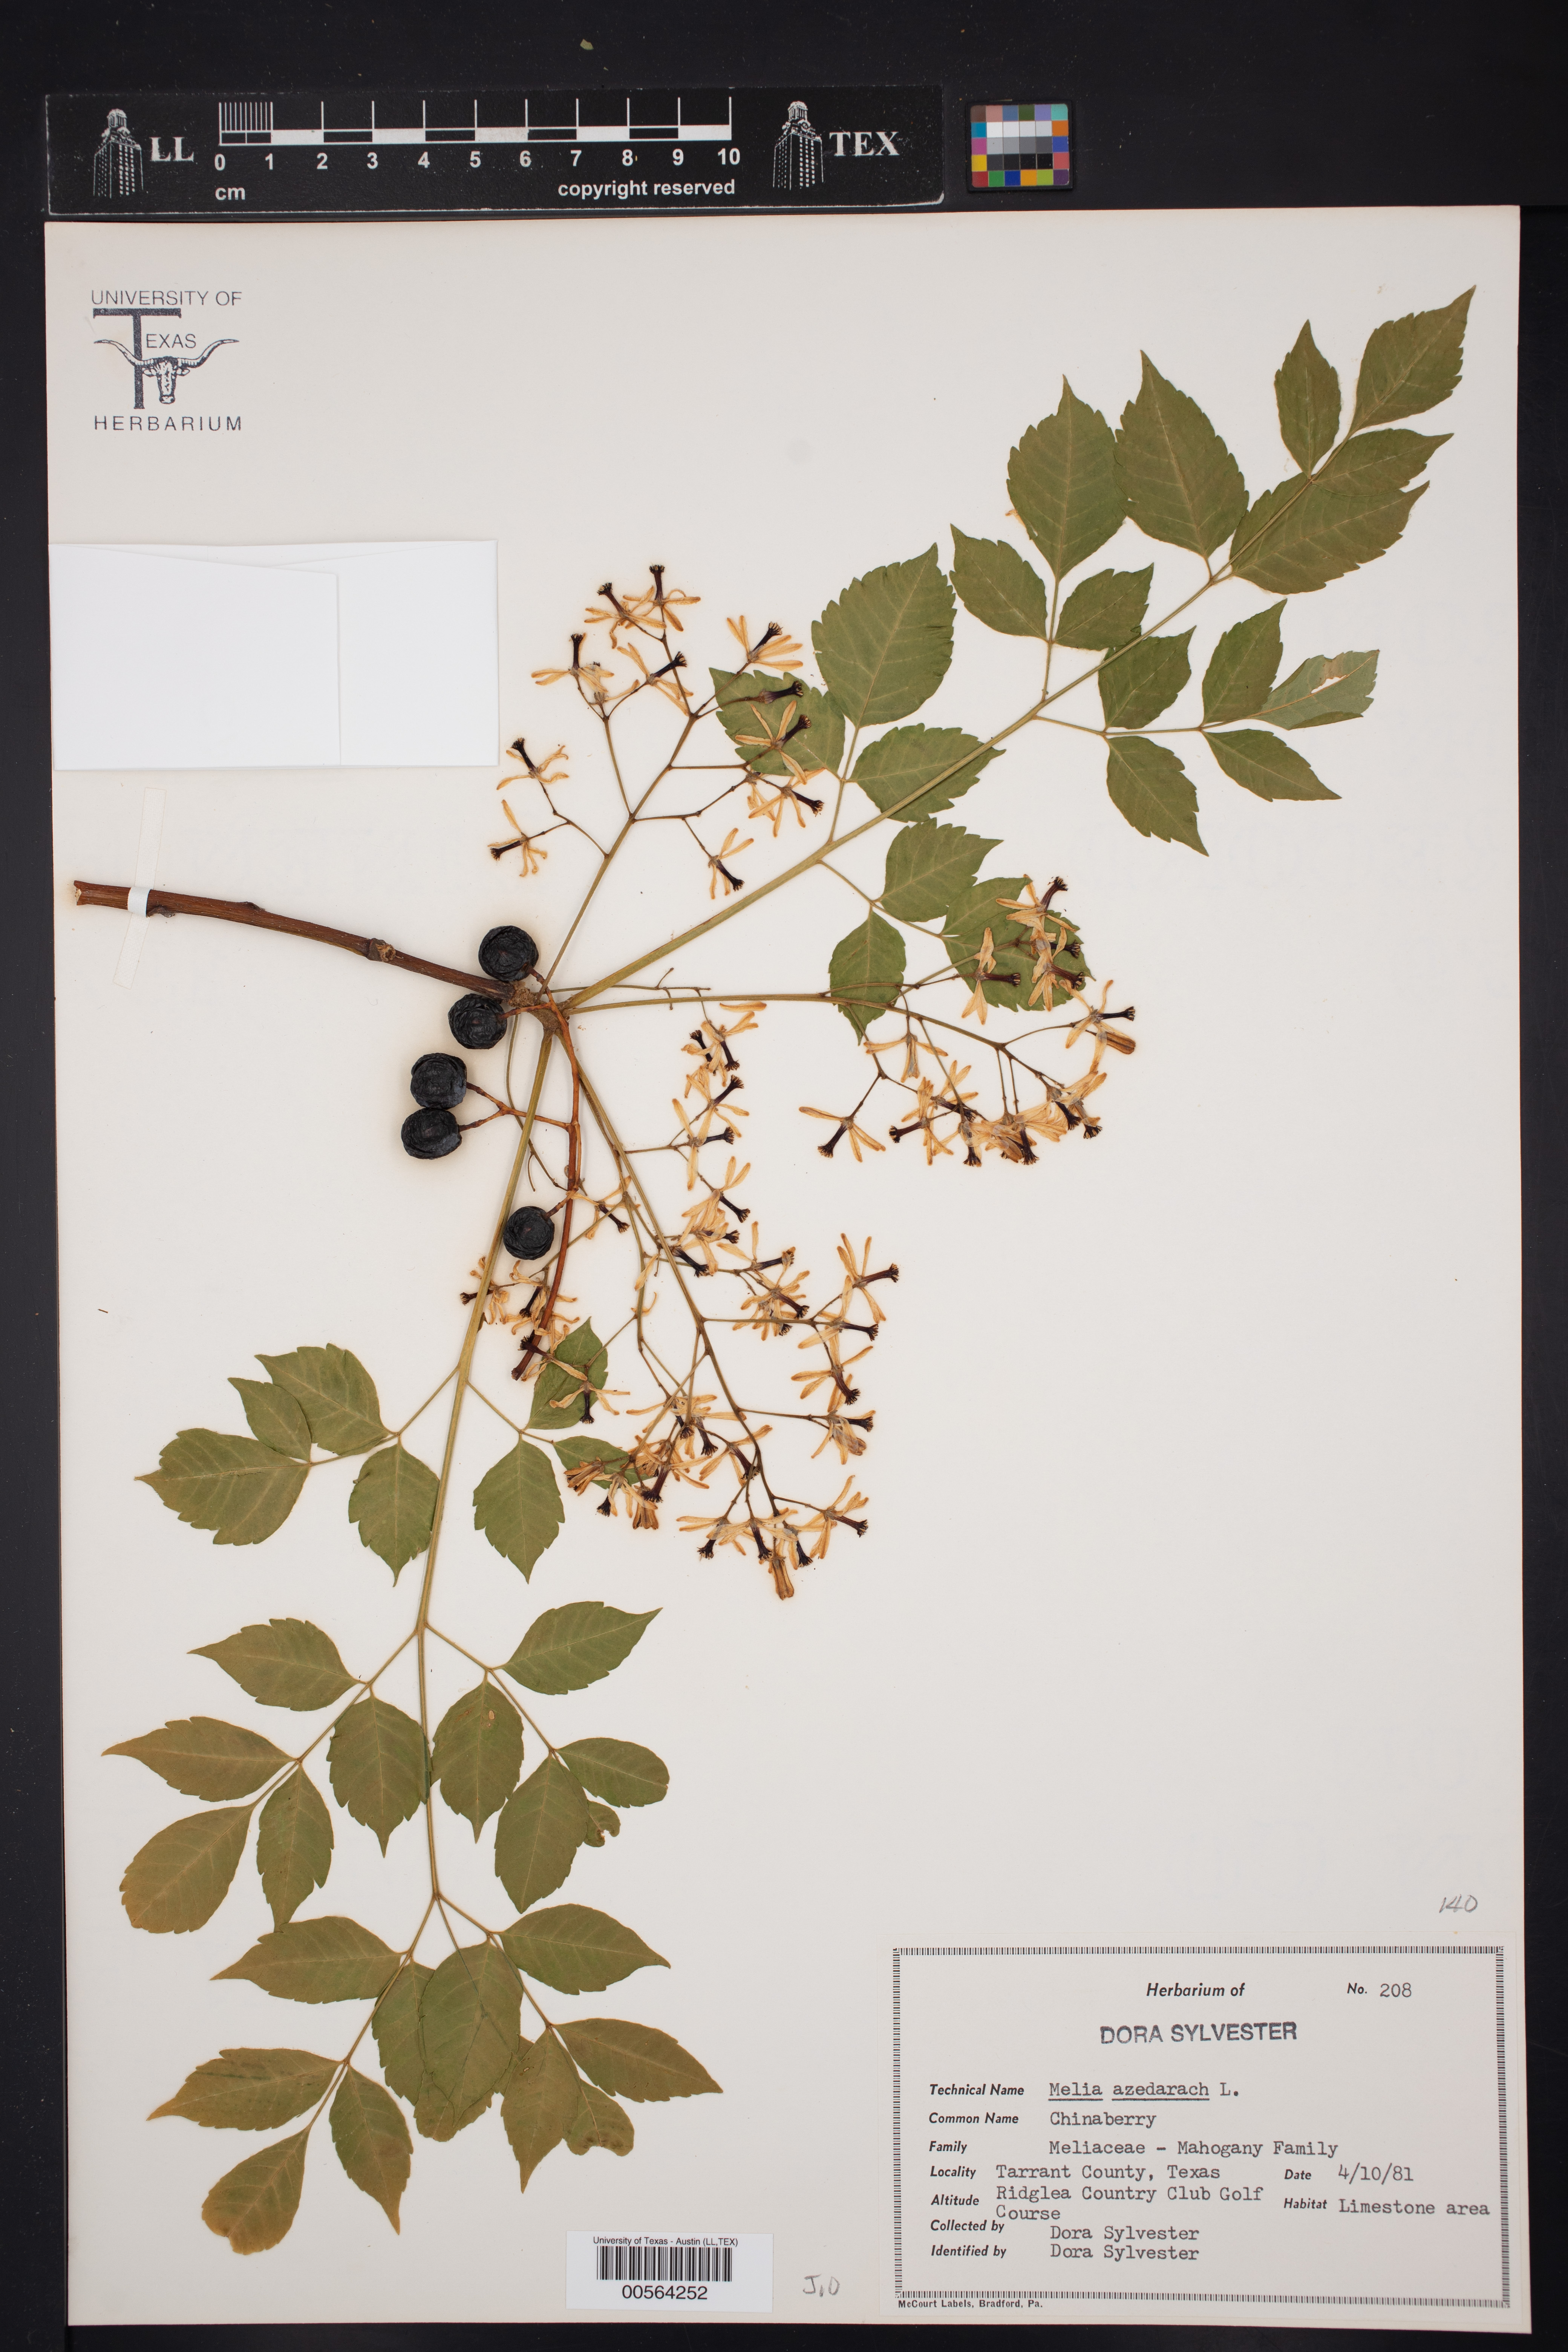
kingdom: Plantae
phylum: Tracheophyta
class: Magnoliopsida
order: Sapindales
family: Meliaceae
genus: Melia
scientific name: Melia azedarach
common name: Chinaberrytree
